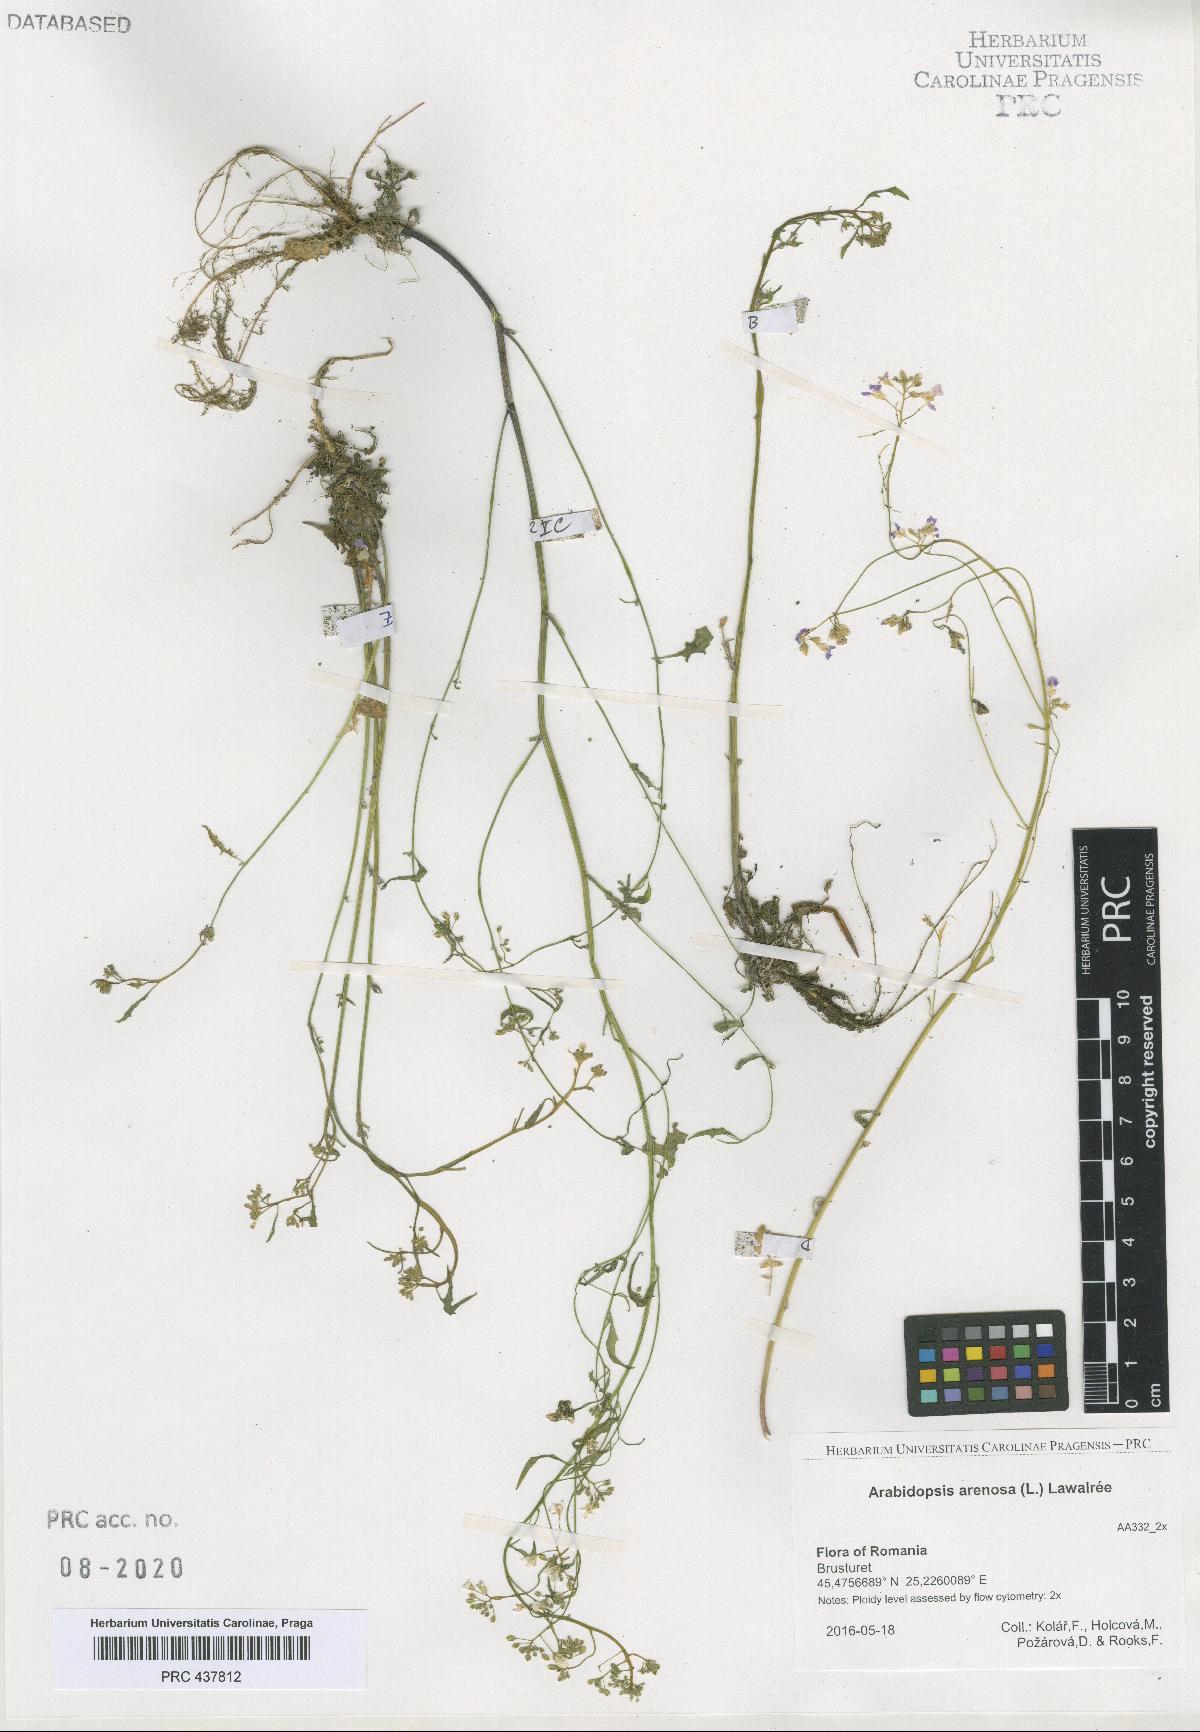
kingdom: Plantae
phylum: Tracheophyta
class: Magnoliopsida
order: Brassicales
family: Brassicaceae
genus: Arabidopsis
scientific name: Arabidopsis arenosa
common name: Sand rock-cress
